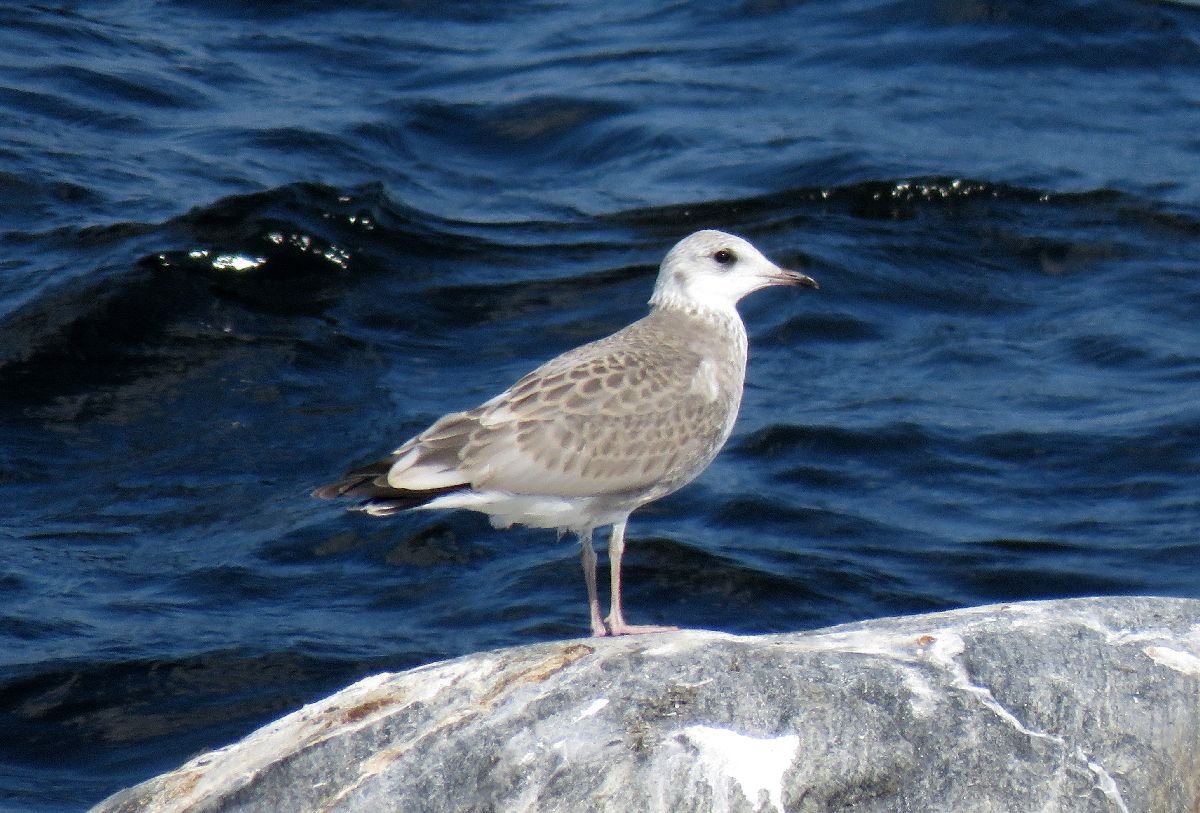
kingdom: Animalia
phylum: Chordata
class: Aves
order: Charadriiformes
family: Laridae
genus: Larus
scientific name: Larus canus
